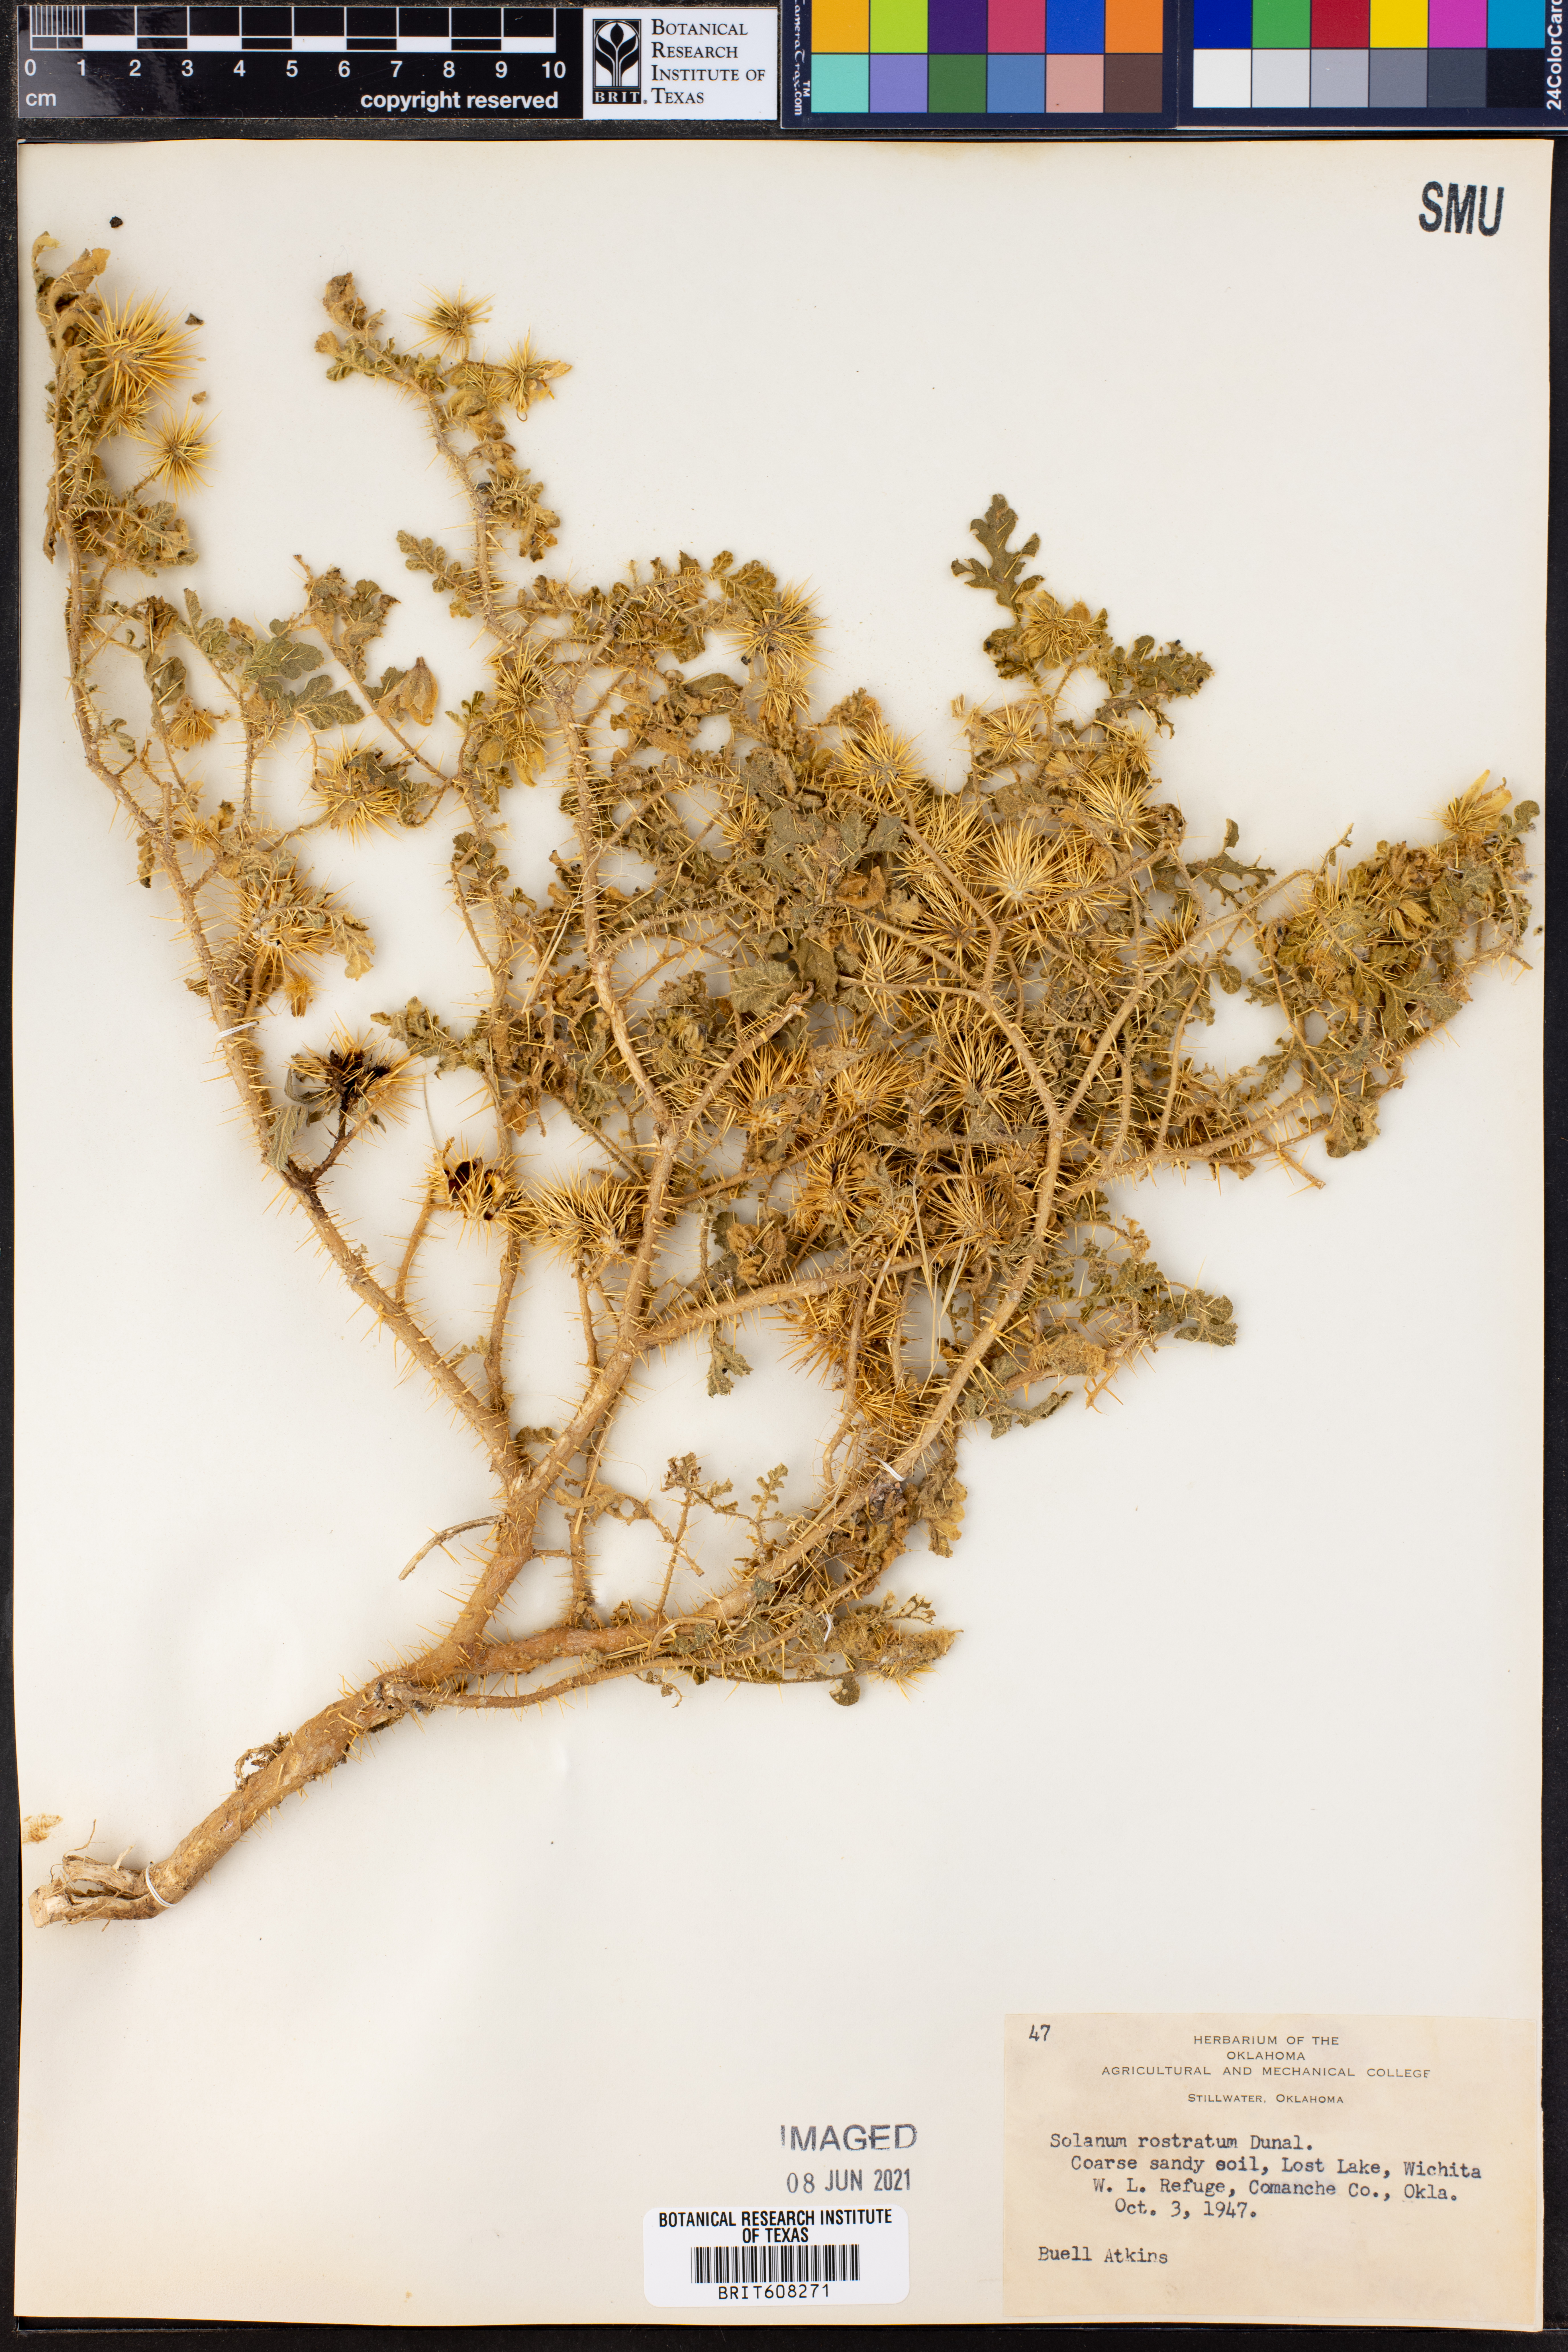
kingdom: Plantae
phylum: Tracheophyta
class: Magnoliopsida
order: Solanales
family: Solanaceae
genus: Solanum
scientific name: Solanum angustifolium
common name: Buffalobur nightshade
